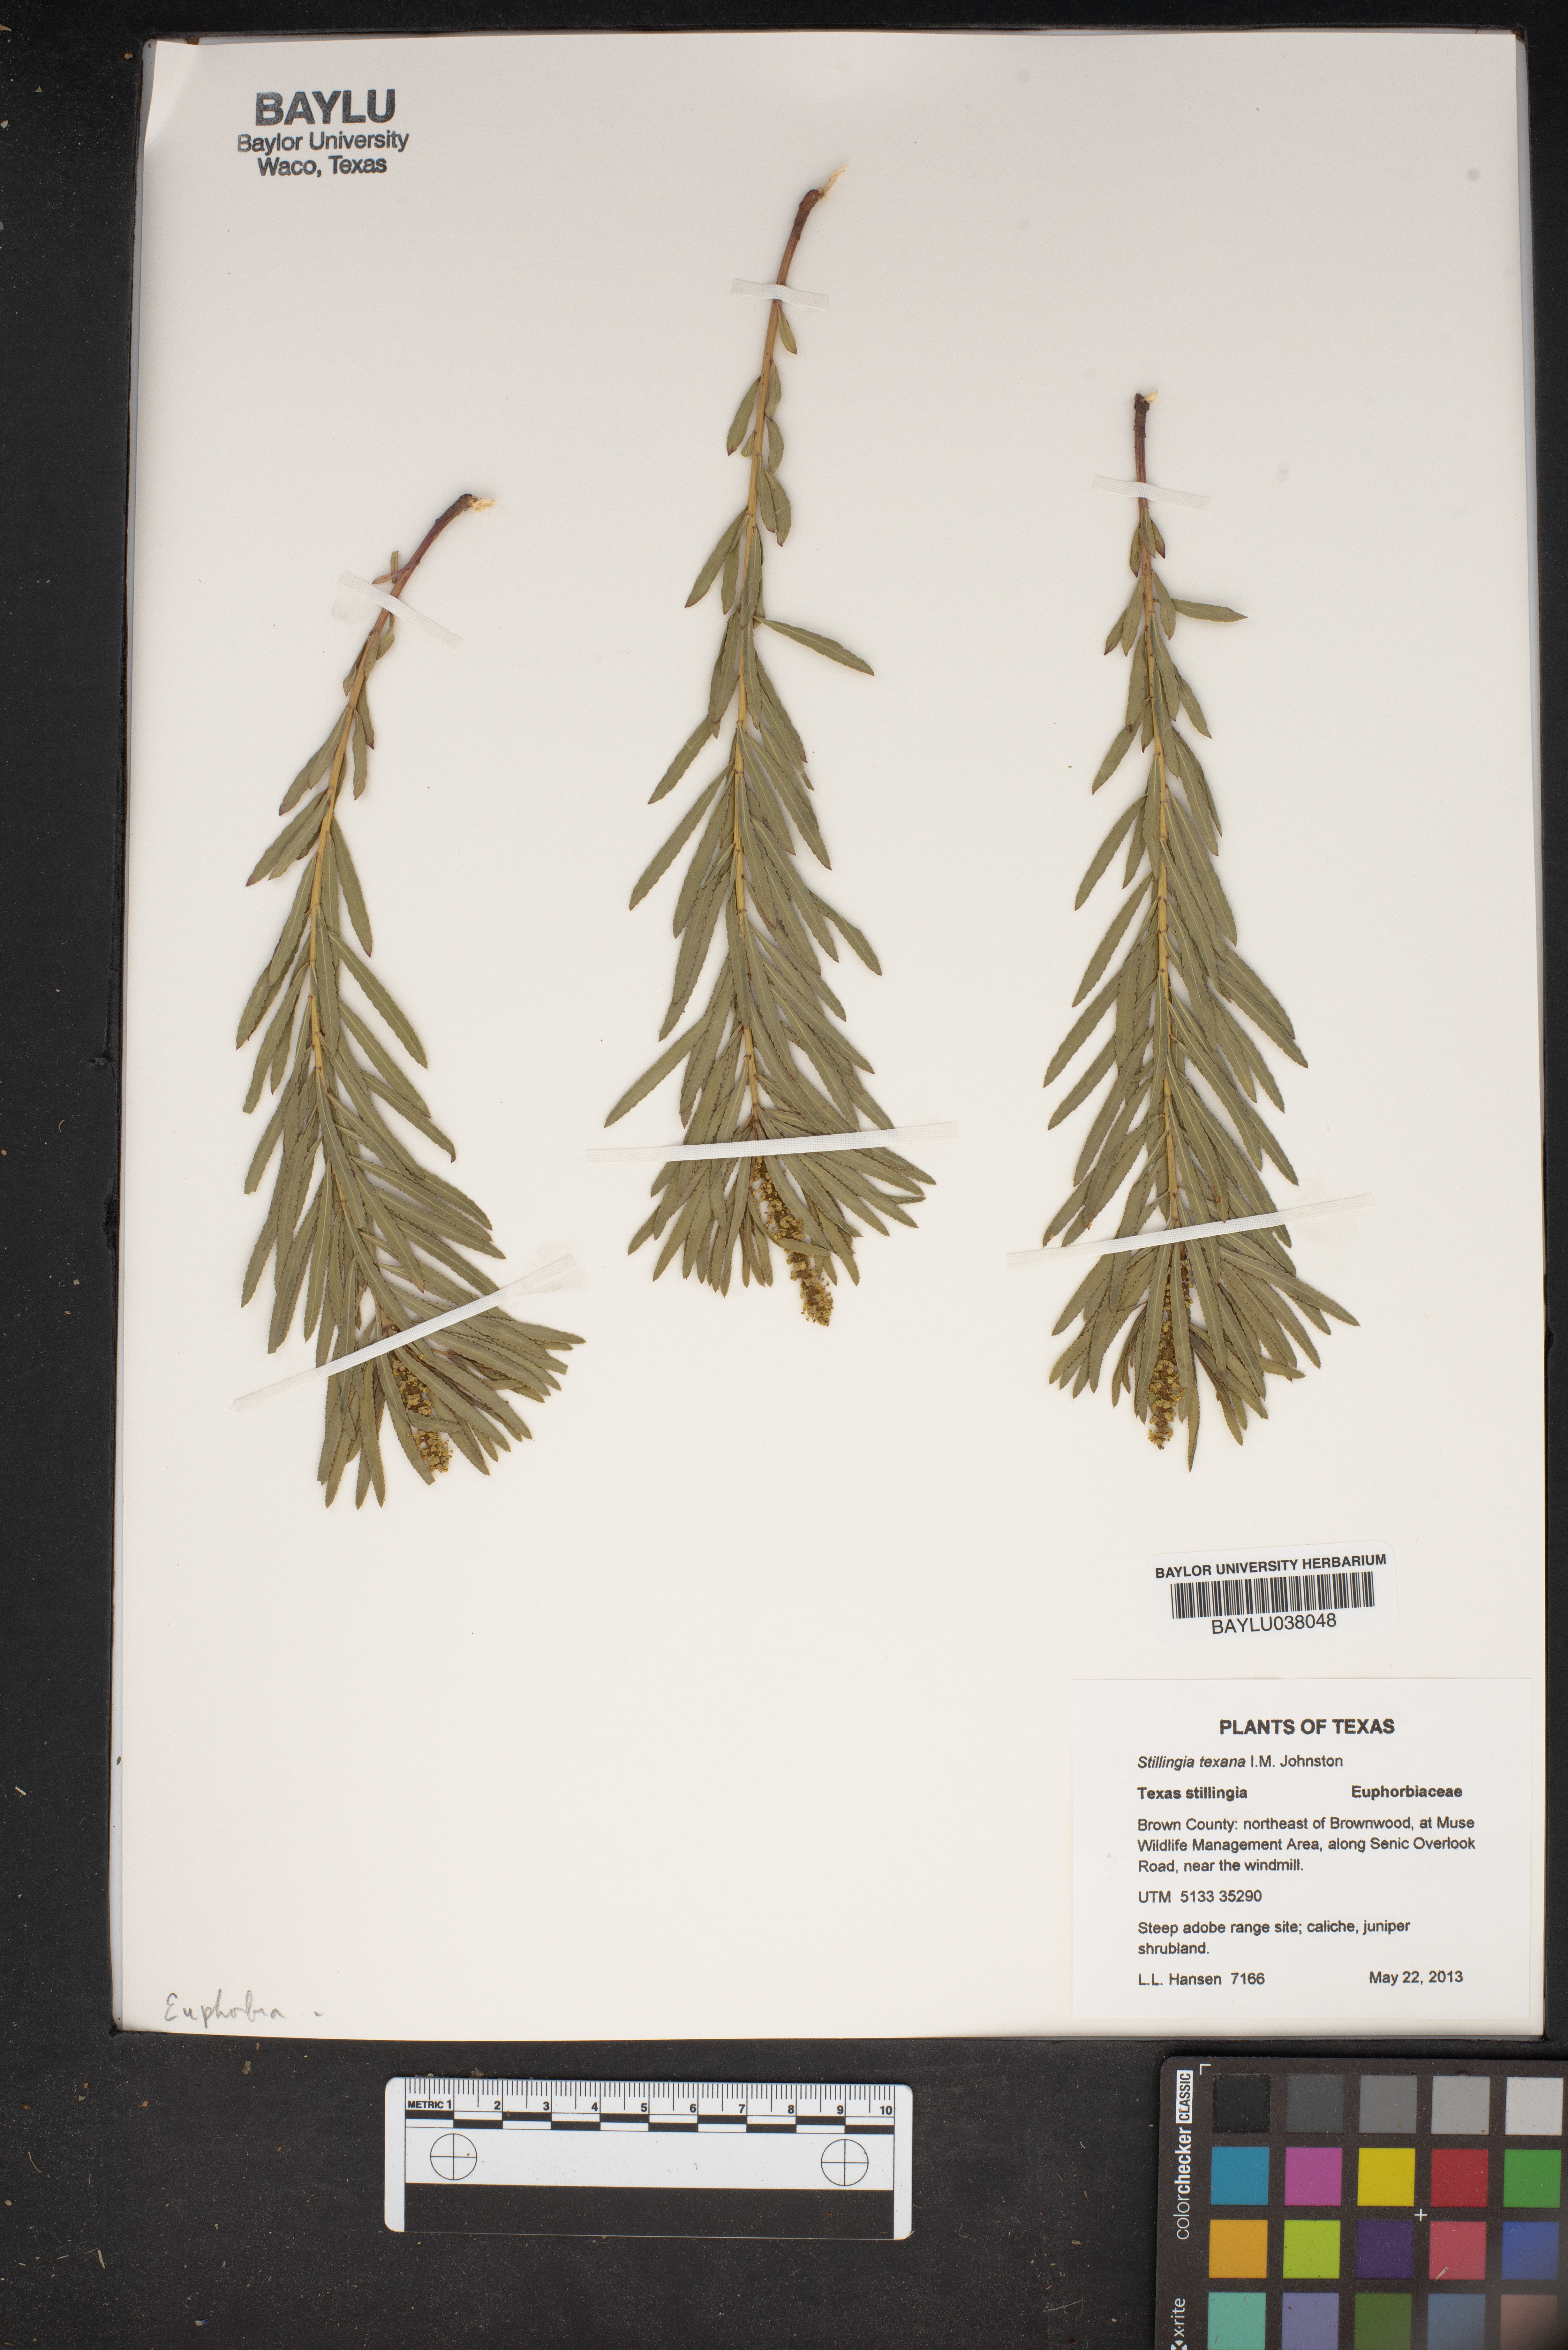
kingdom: Plantae
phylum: Tracheophyta
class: Magnoliopsida
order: Malpighiales
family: Euphorbiaceae
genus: Stillingia
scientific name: Stillingia texana
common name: Texas stillingia
